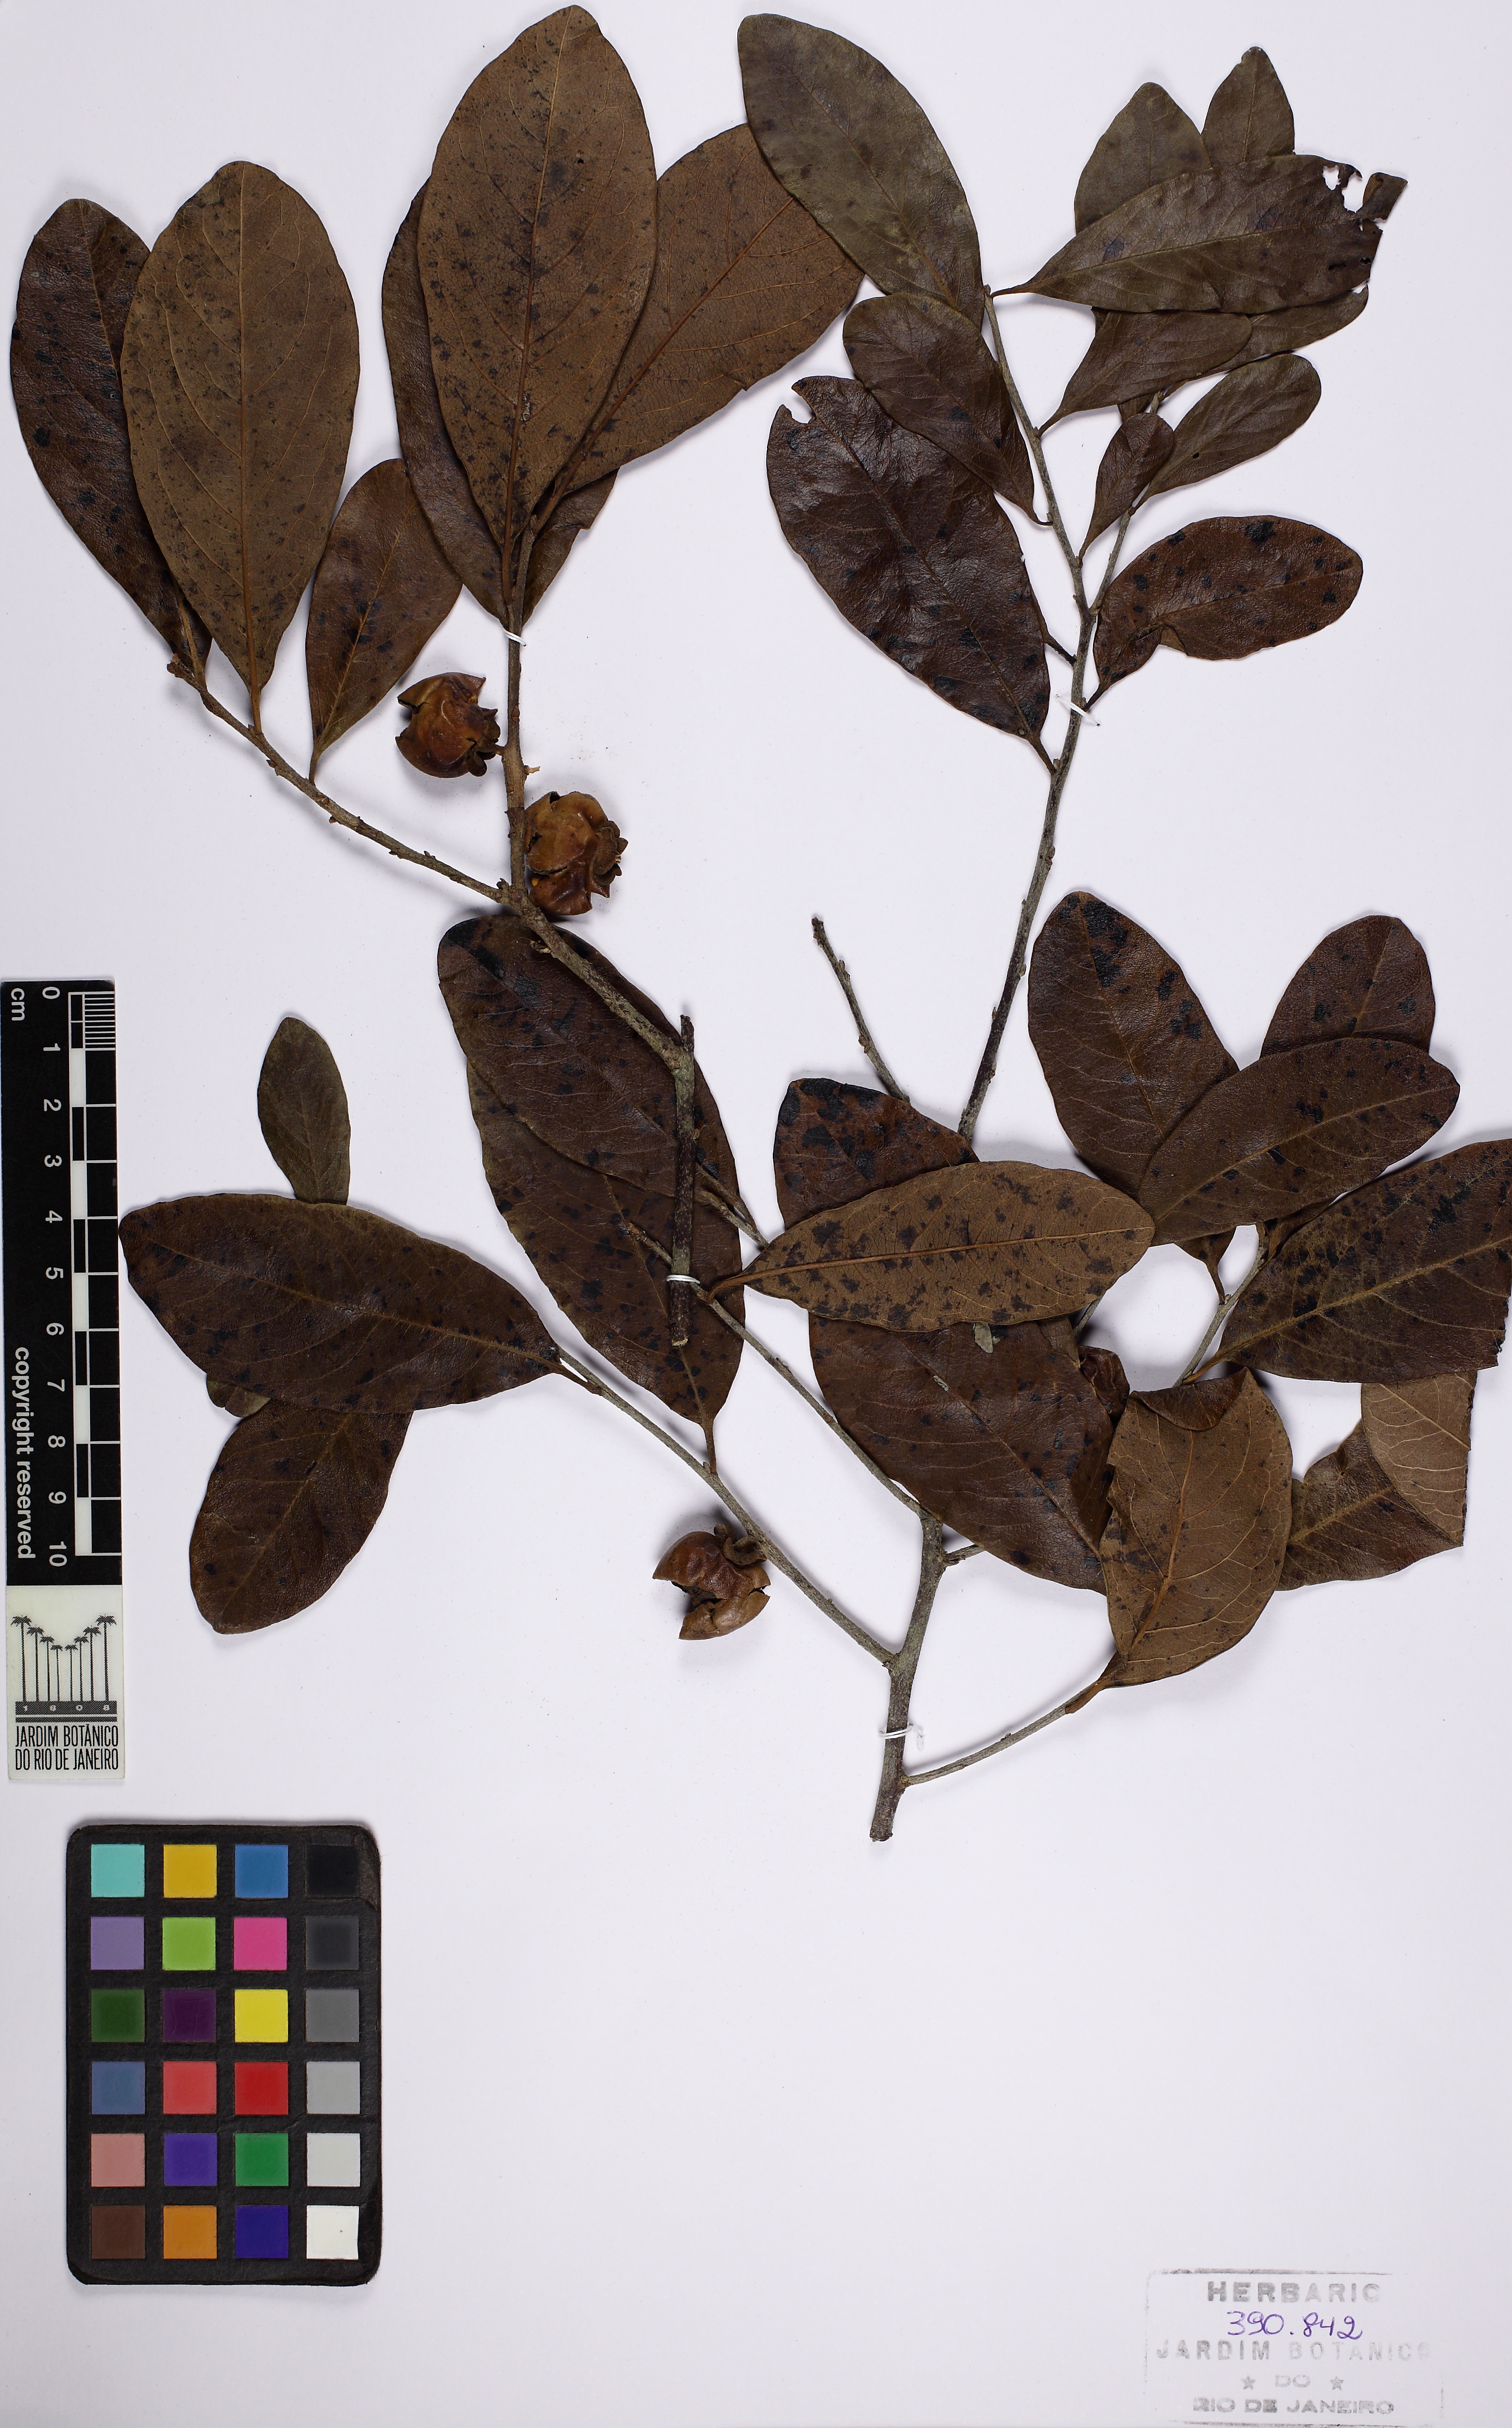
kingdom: Plantae
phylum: Tracheophyta
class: Magnoliopsida
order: Ericales
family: Ebenaceae
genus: Diospyros
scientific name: Diospyros inconstans
